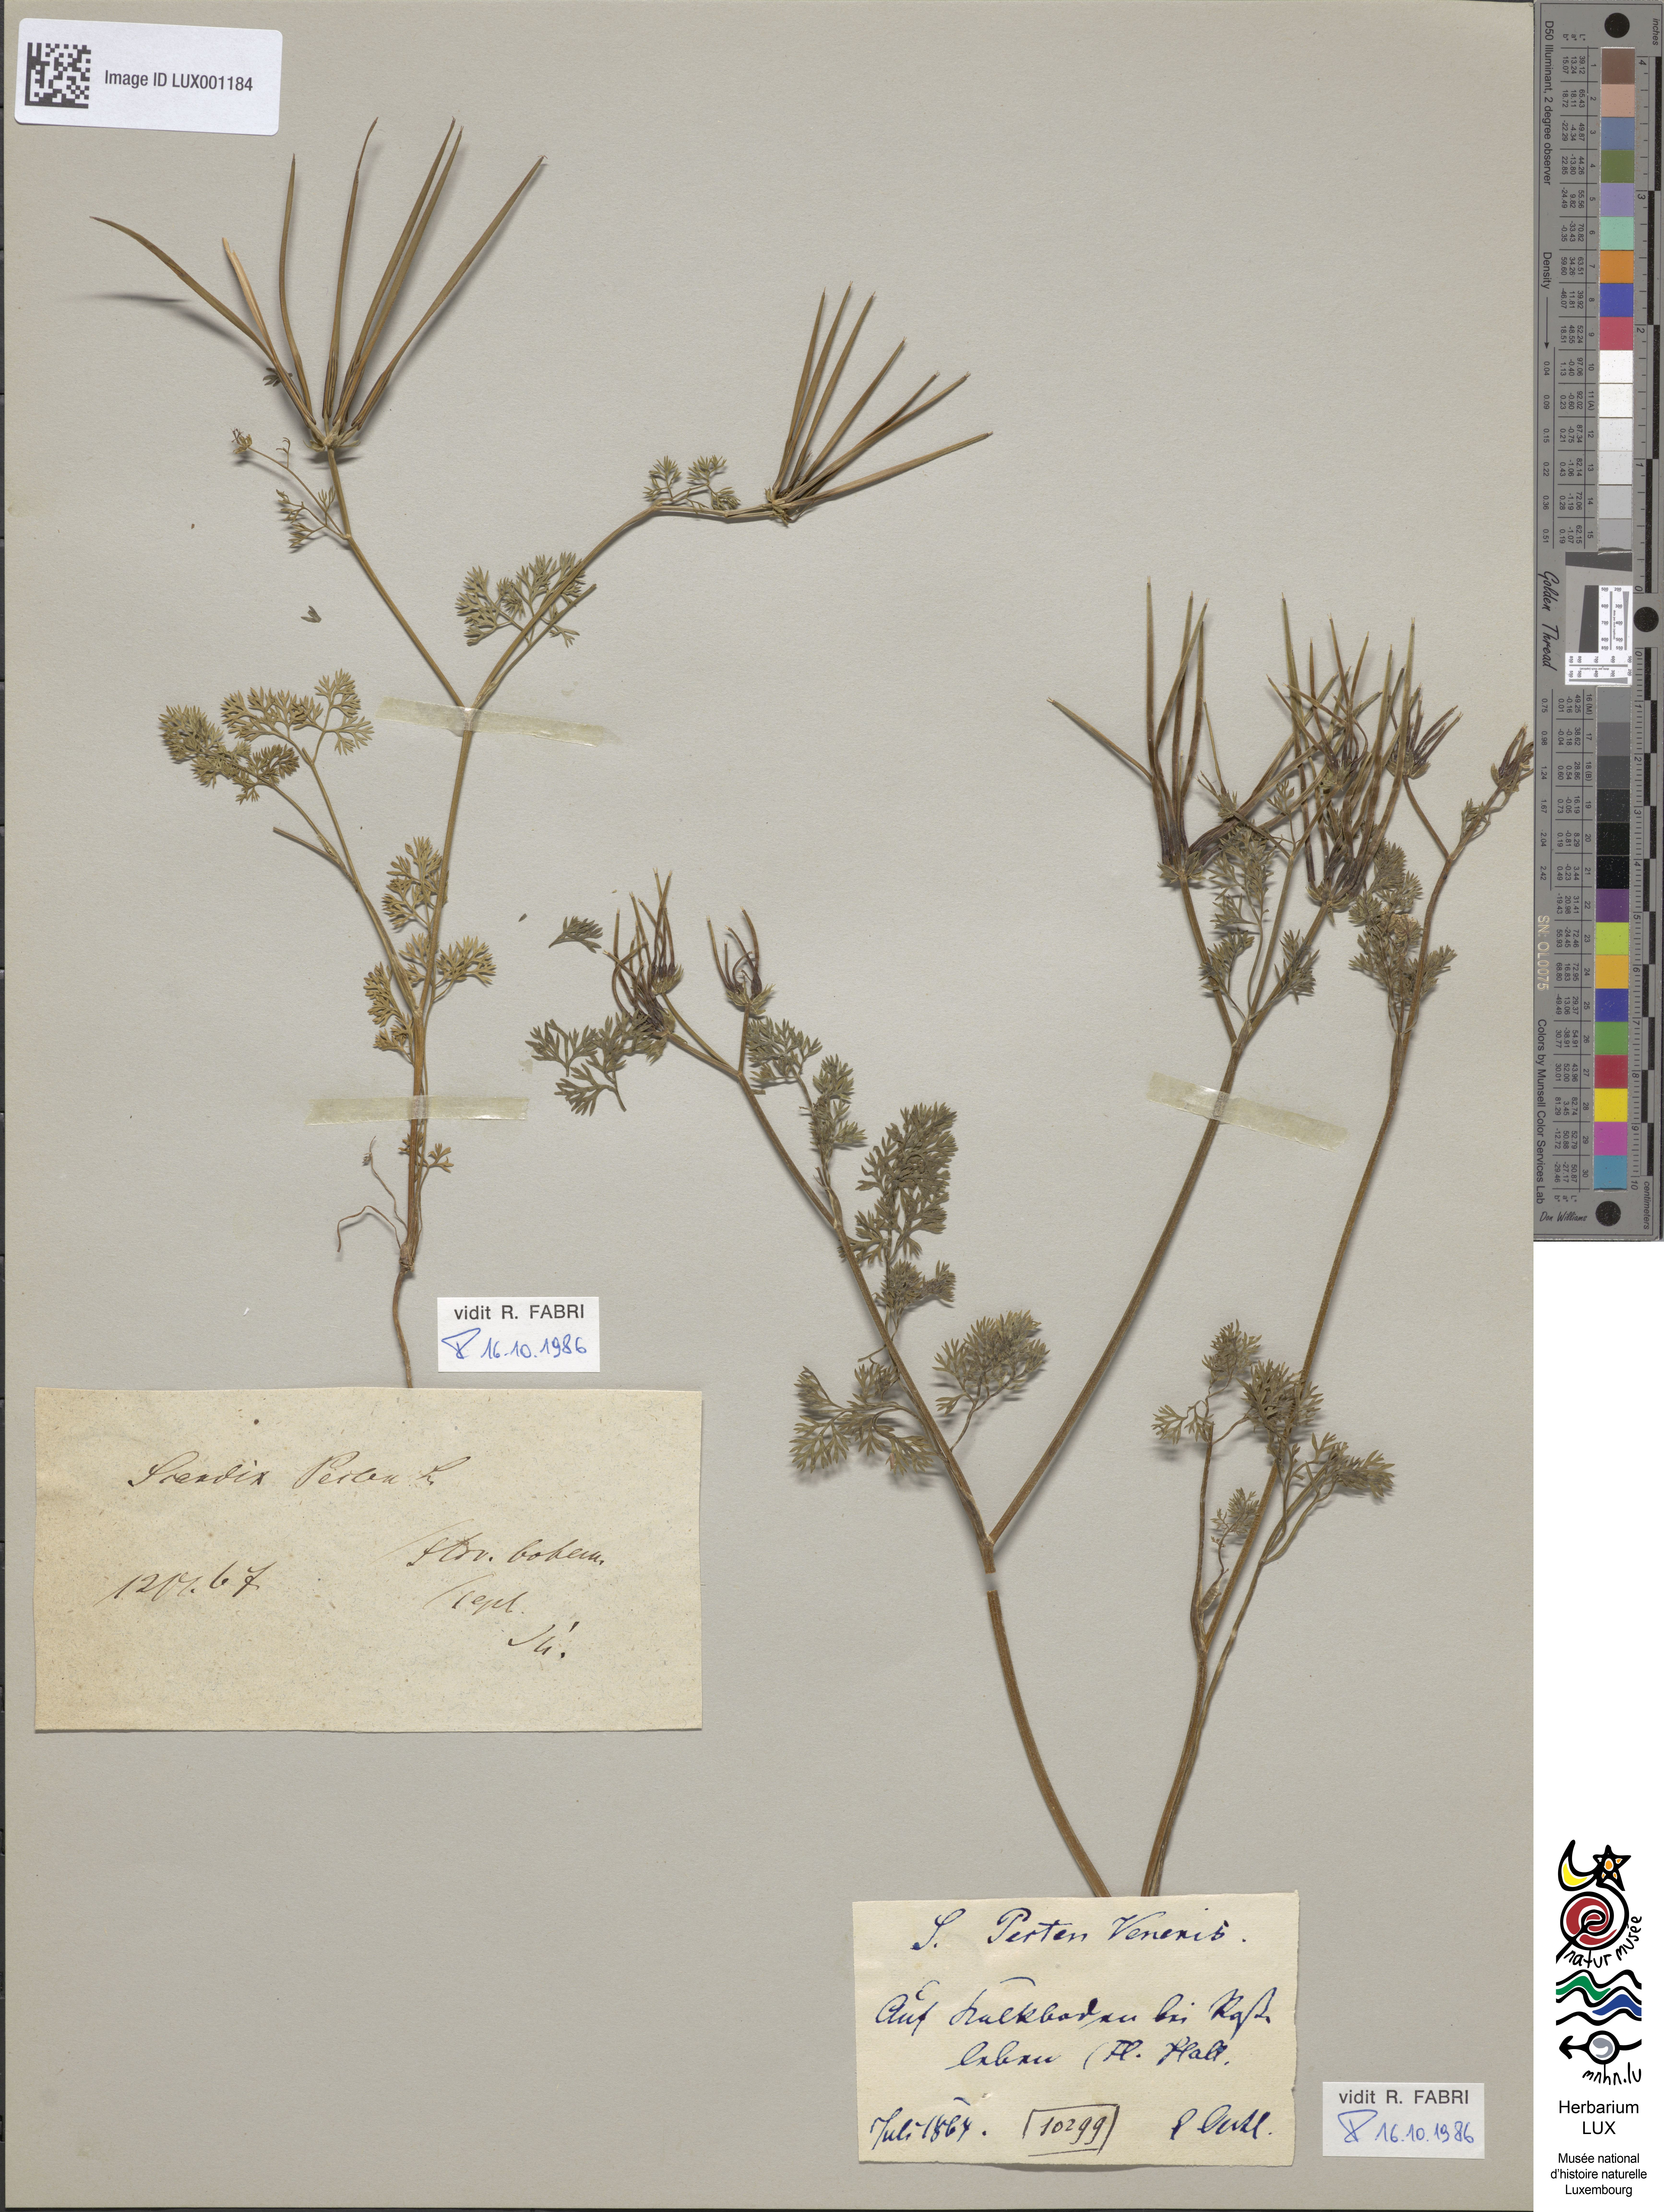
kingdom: Plantae
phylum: Tracheophyta
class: Magnoliopsida
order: Apiales
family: Apiaceae
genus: Scandix
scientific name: Scandix pecten-veneris
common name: Shepherd's-needle
